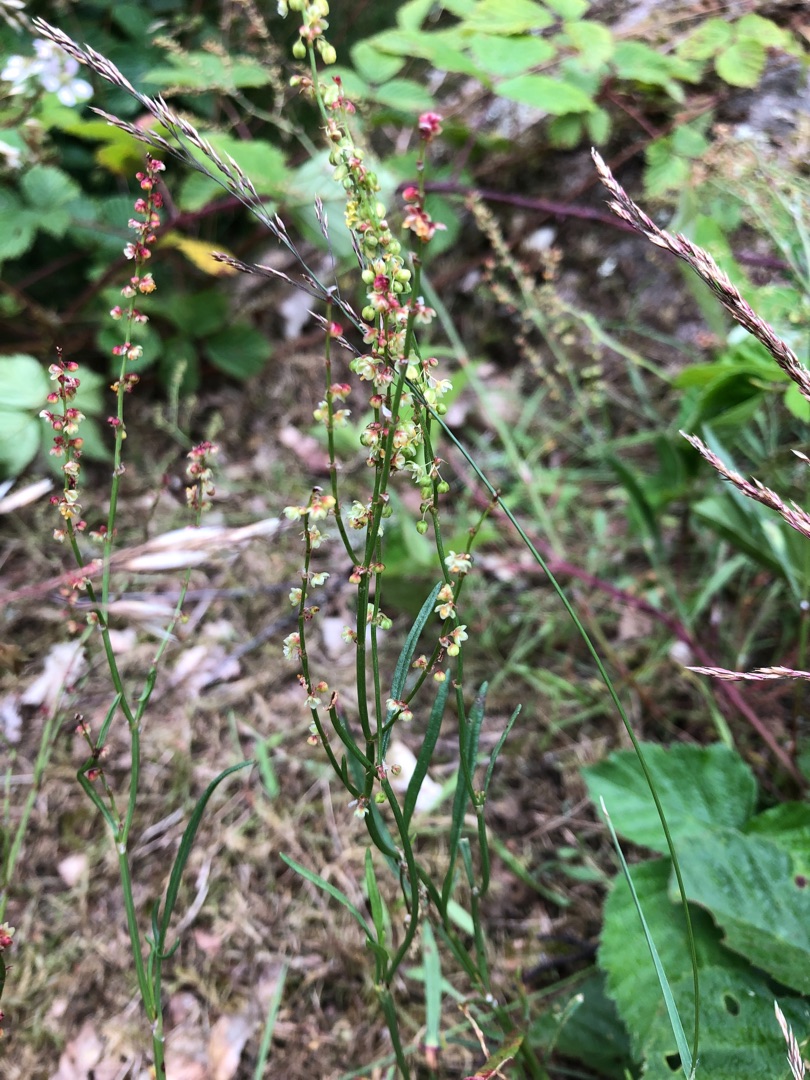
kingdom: Plantae
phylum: Tracheophyta
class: Magnoliopsida
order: Caryophyllales
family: Polygonaceae
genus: Rumex
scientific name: Rumex acetosella
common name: Rødknæ
